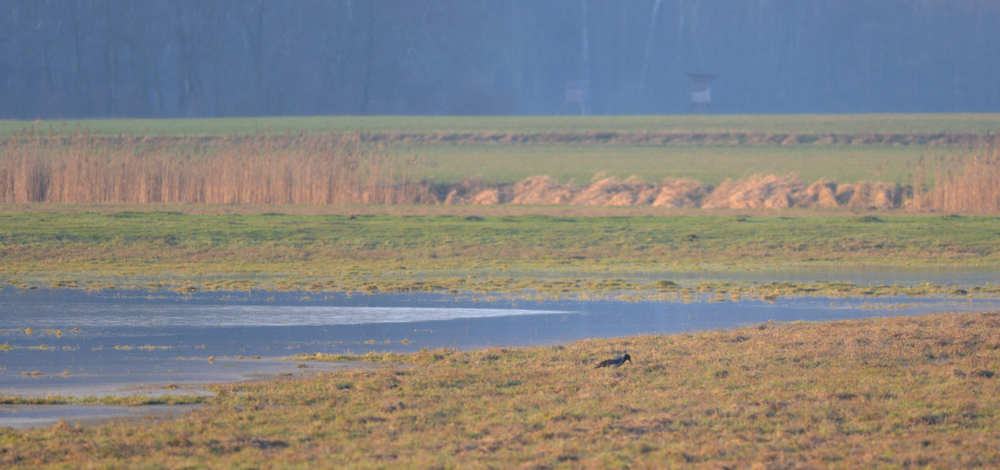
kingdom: Animalia
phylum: Chordata
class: Aves
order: Passeriformes
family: Corvidae
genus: Corvus
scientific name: Corvus cornix
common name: Hooded crow
